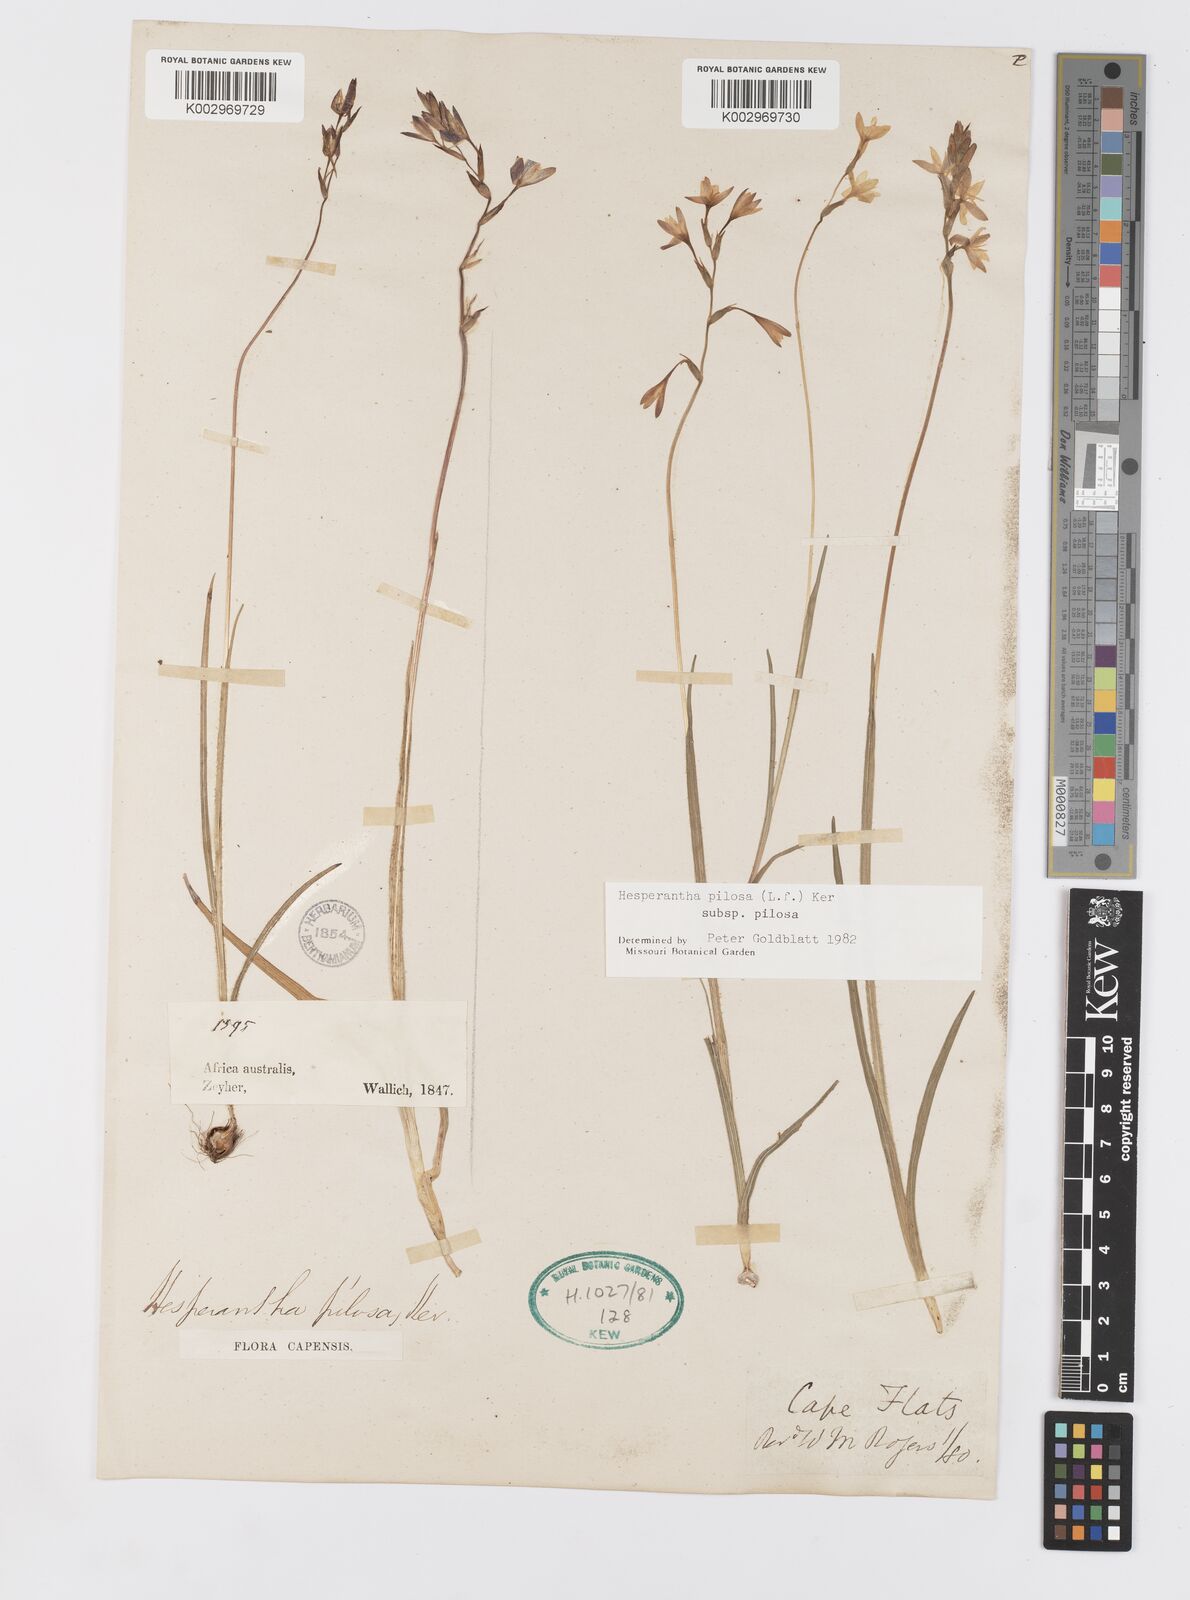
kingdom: Plantae
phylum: Tracheophyta
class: Liliopsida
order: Asparagales
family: Iridaceae
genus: Hesperantha
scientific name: Hesperantha pilosa
